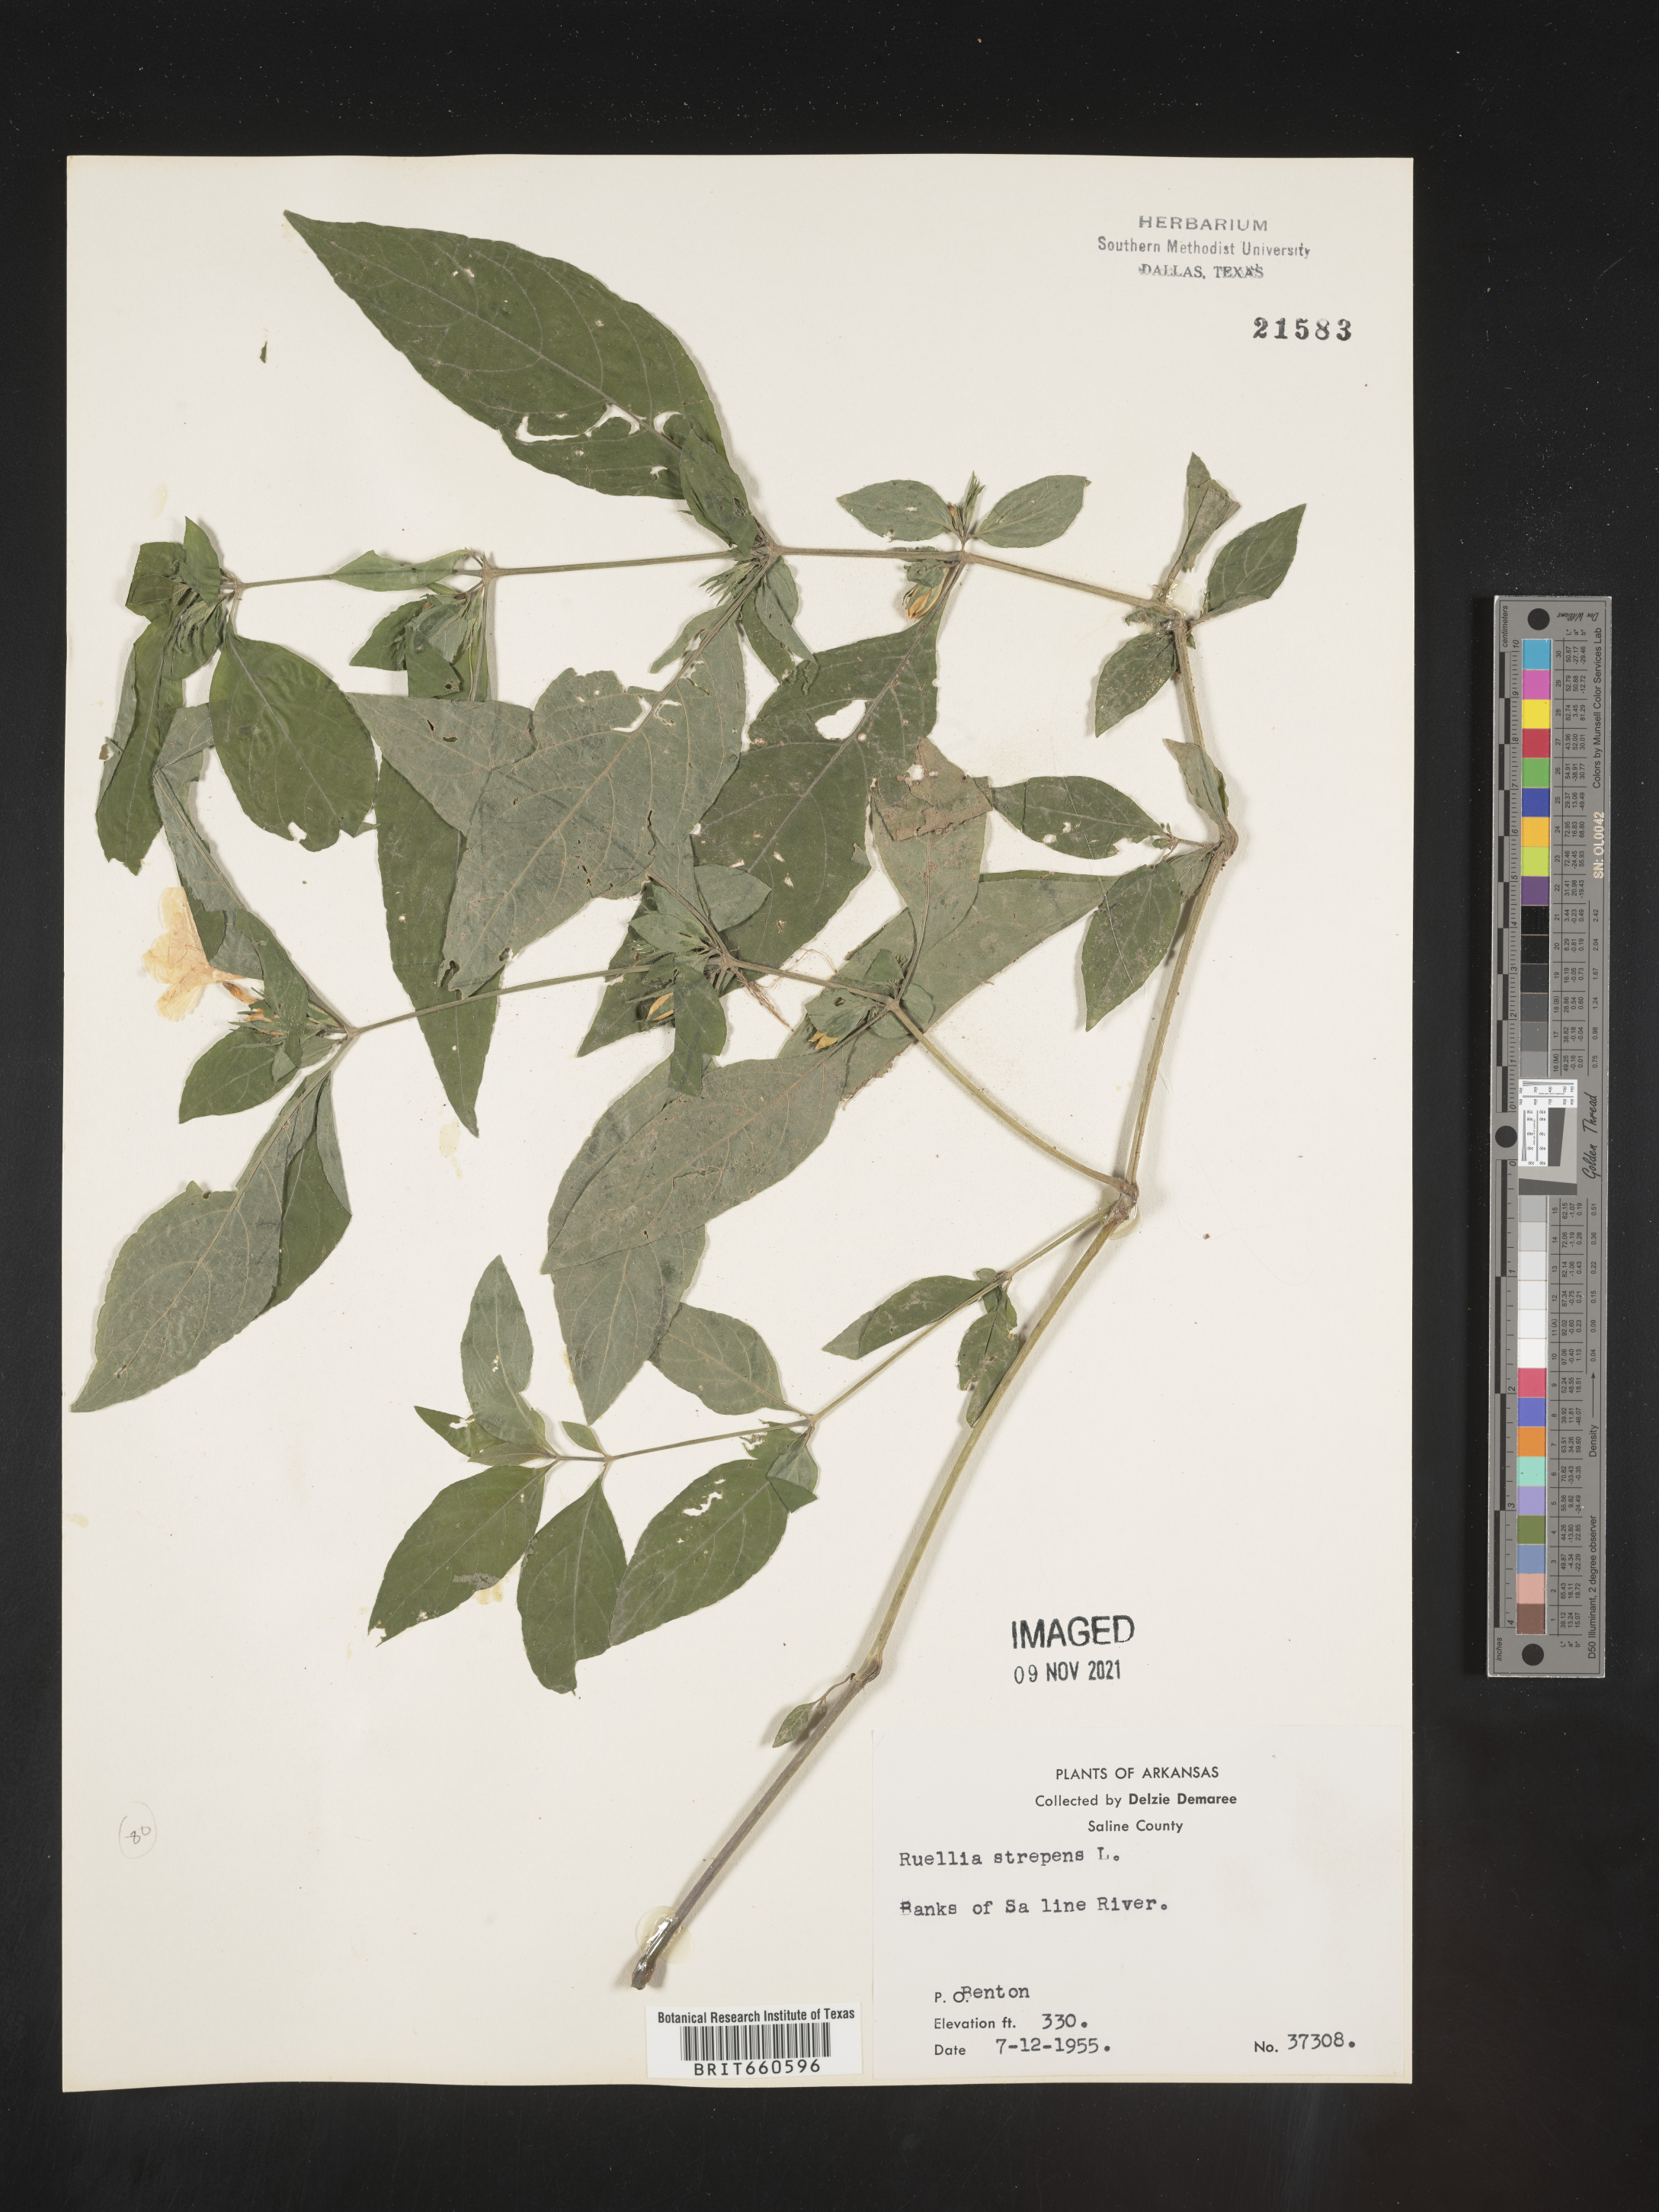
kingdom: Plantae
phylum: Tracheophyta
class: Magnoliopsida
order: Lamiales
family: Acanthaceae
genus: Ruellia
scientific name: Ruellia strepens
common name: Limestone wild petunia
